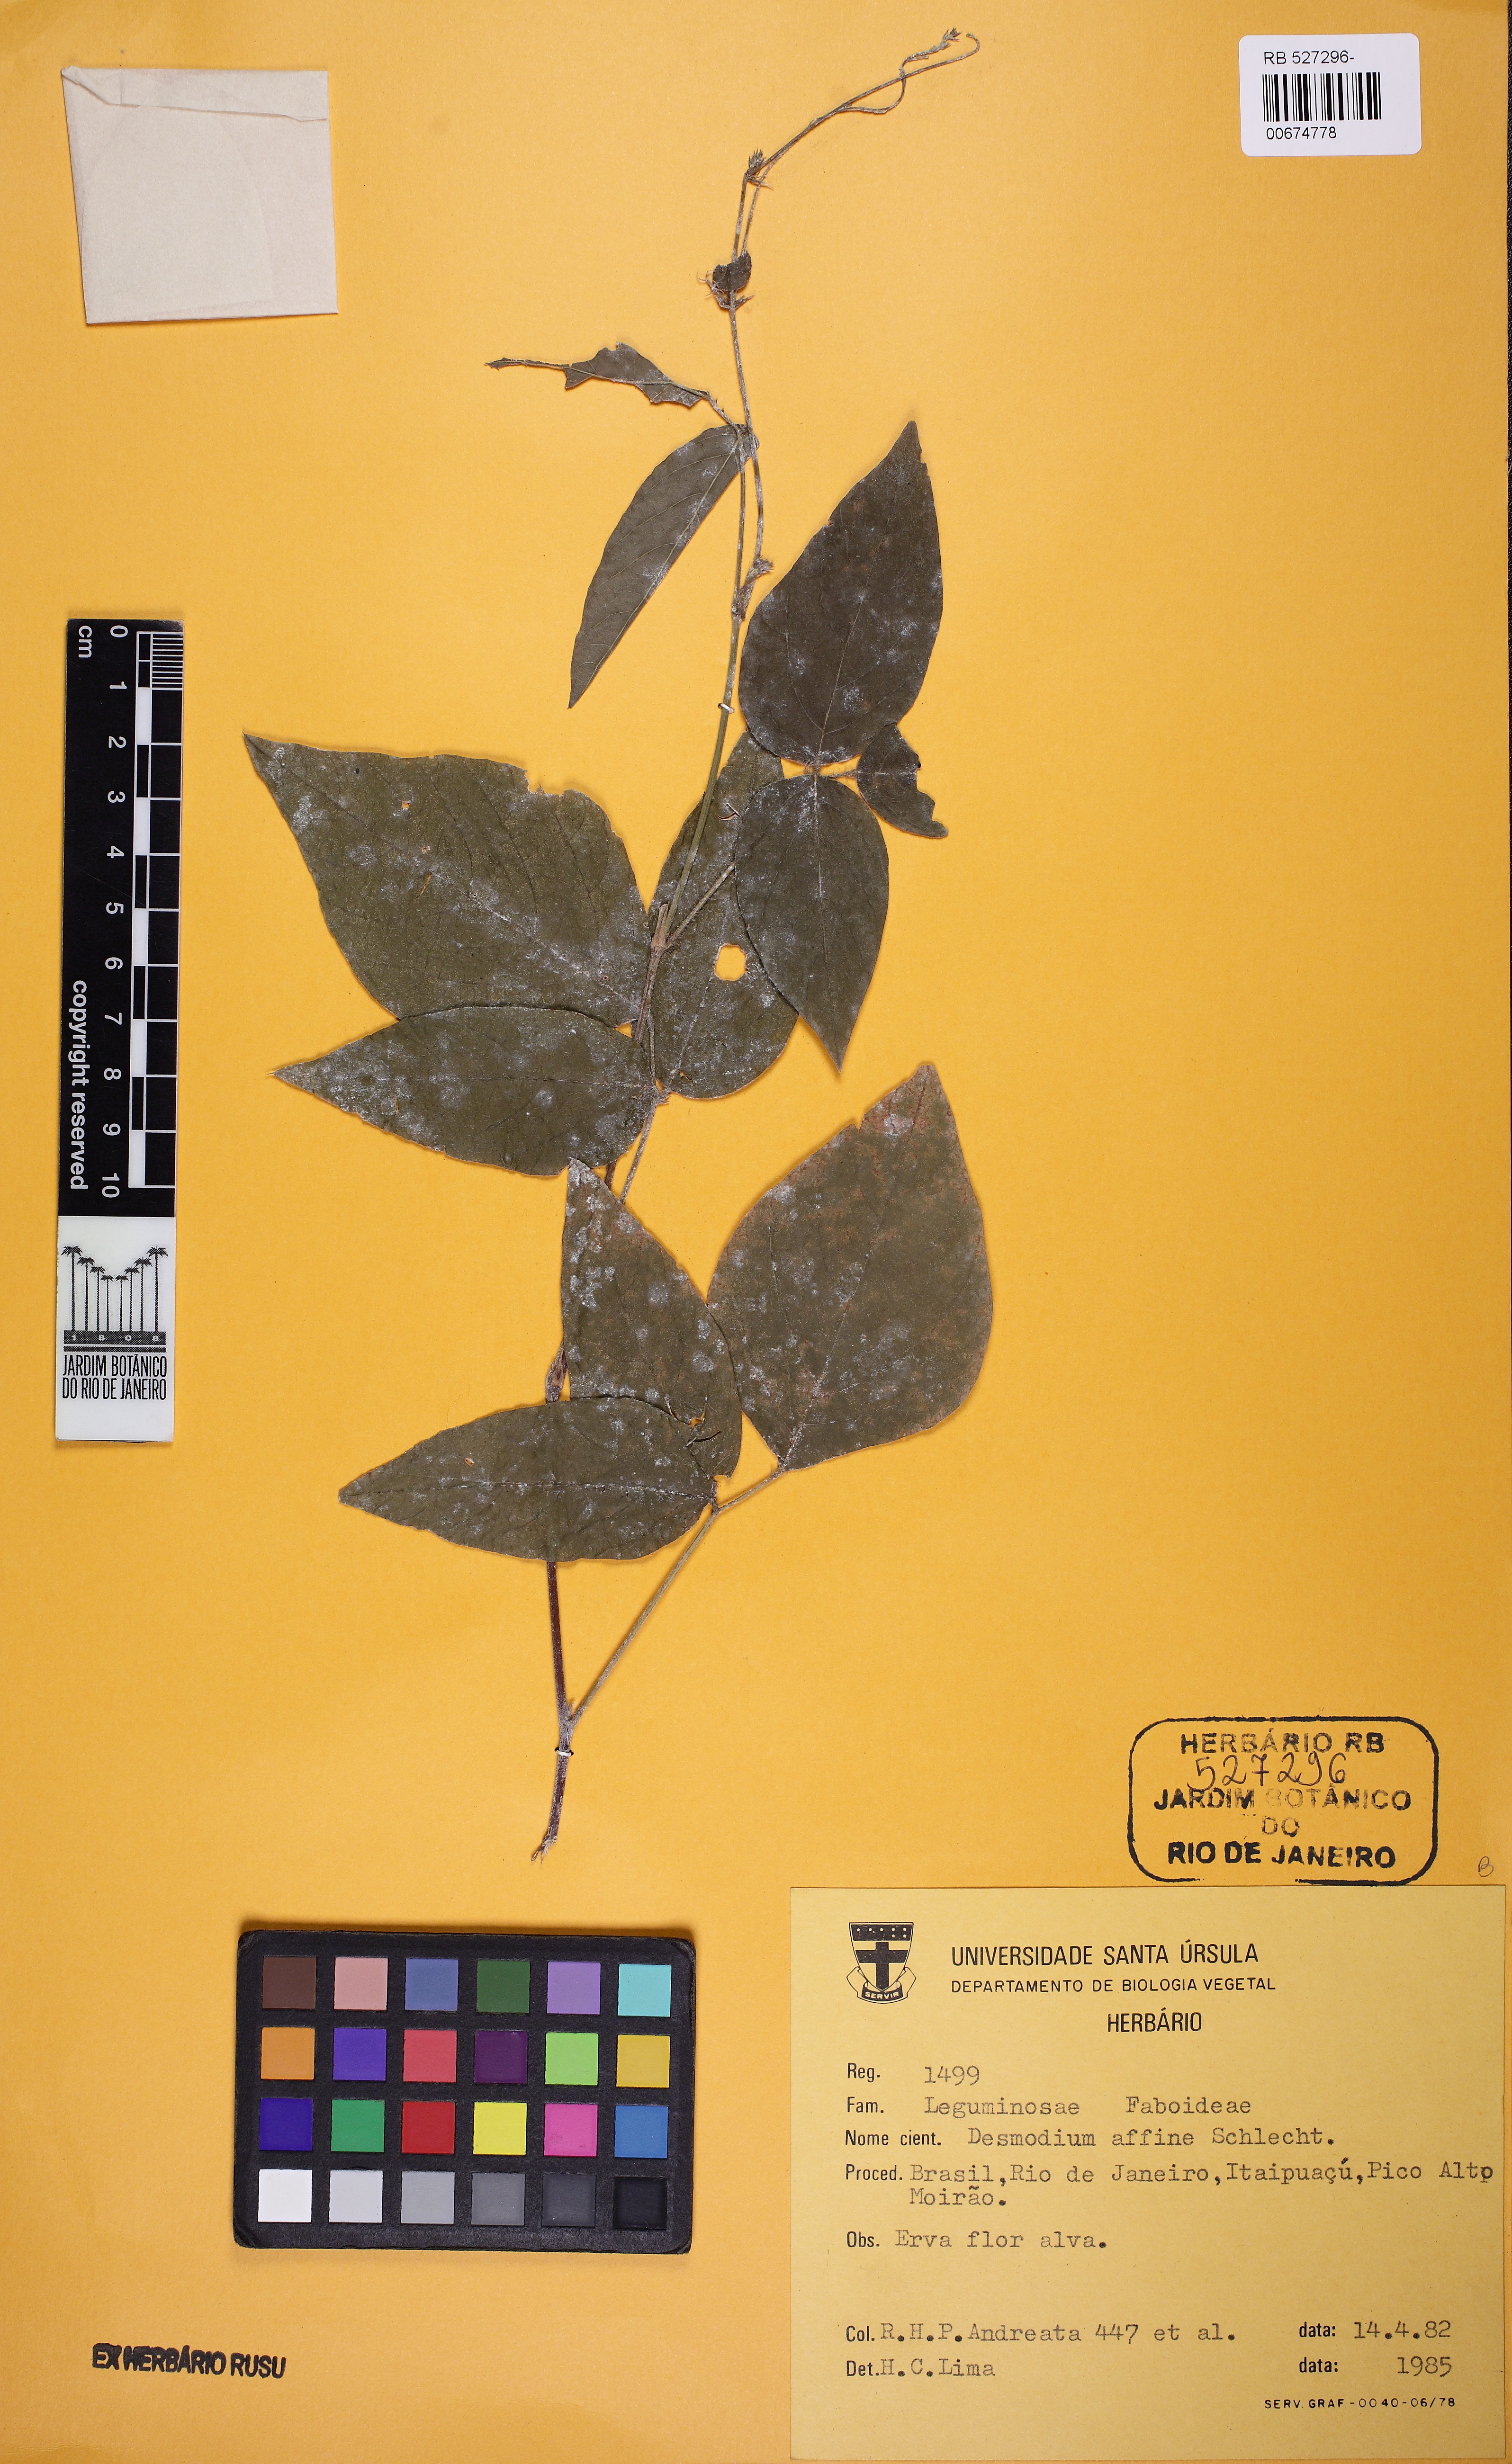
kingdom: Plantae
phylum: Tracheophyta
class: Magnoliopsida
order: Fabales
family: Fabaceae
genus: Desmodium
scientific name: Desmodium affine
